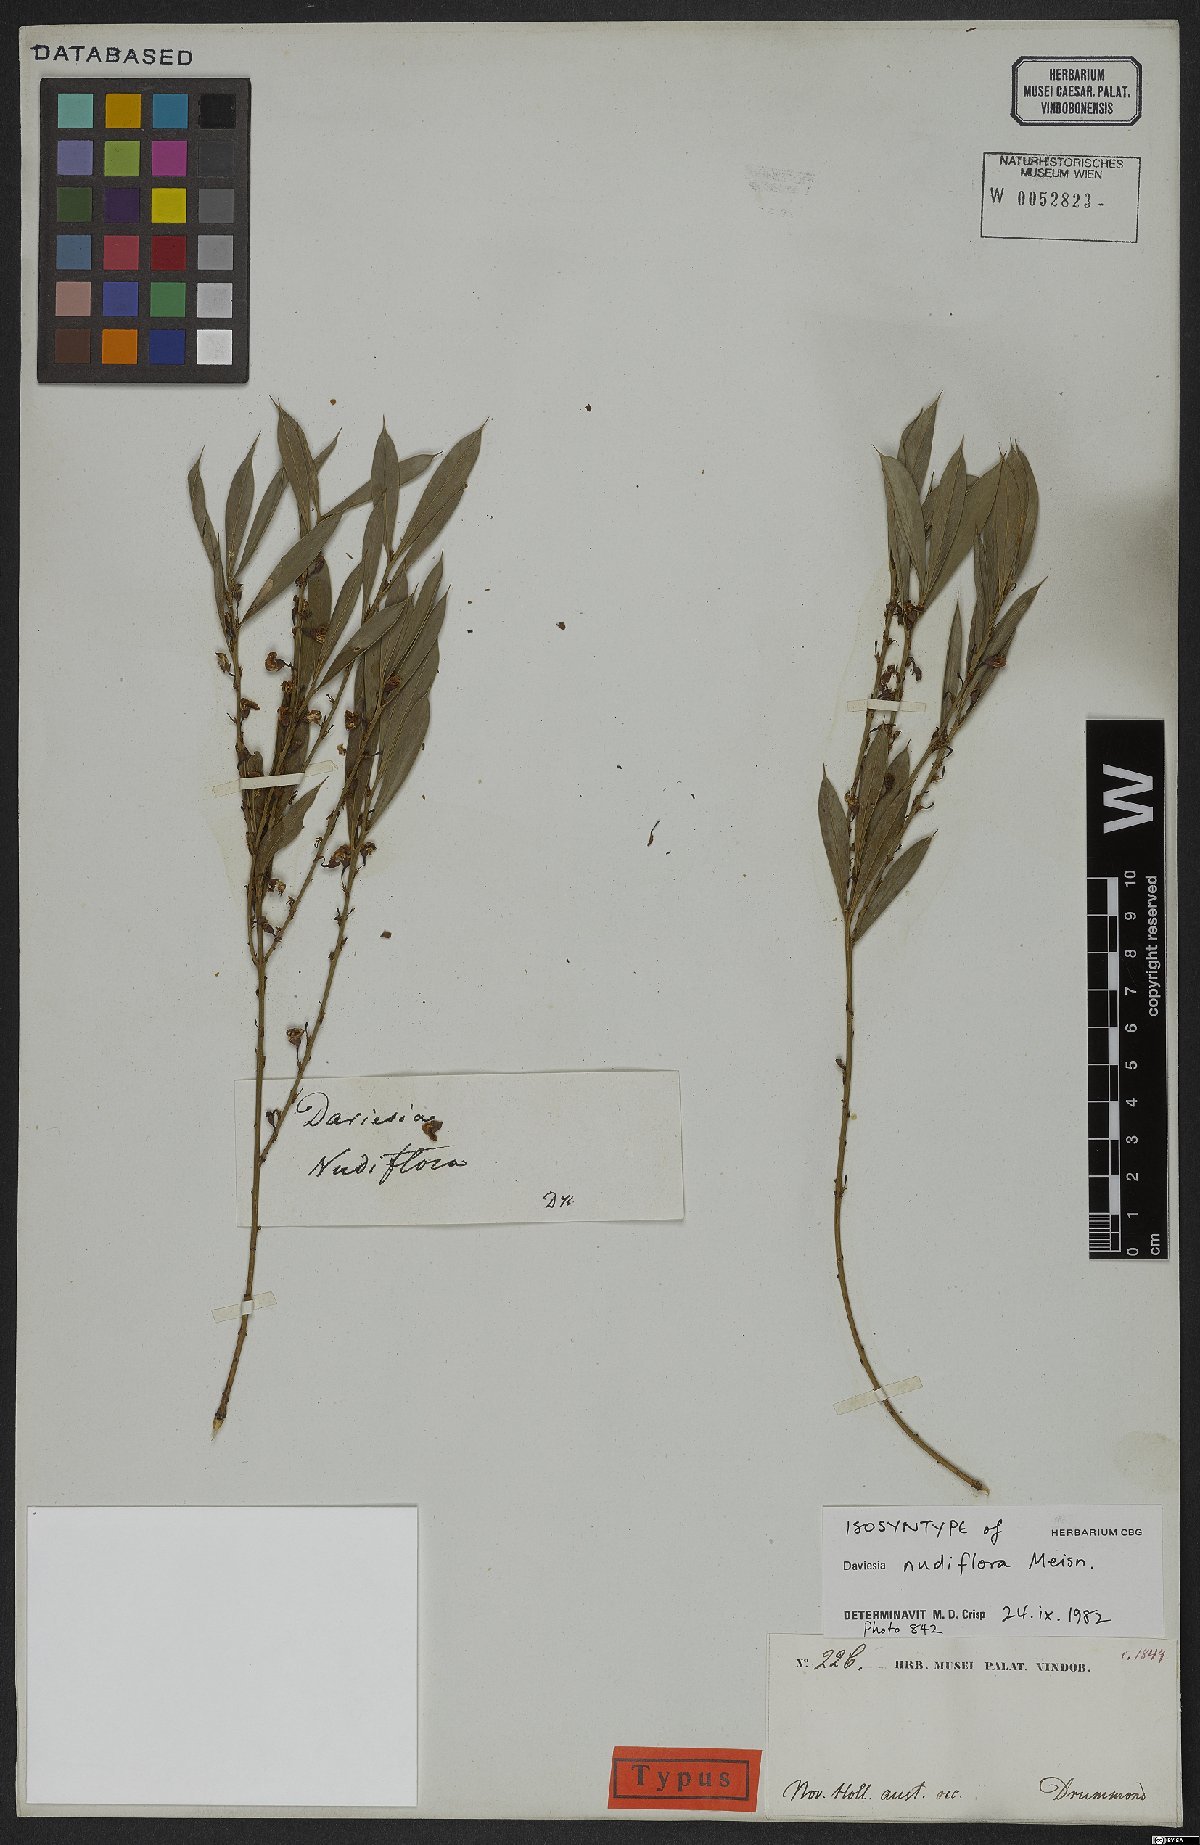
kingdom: Plantae
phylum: Tracheophyta
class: Magnoliopsida
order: Fabales
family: Fabaceae
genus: Daviesia
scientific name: Daviesia nudiflora
